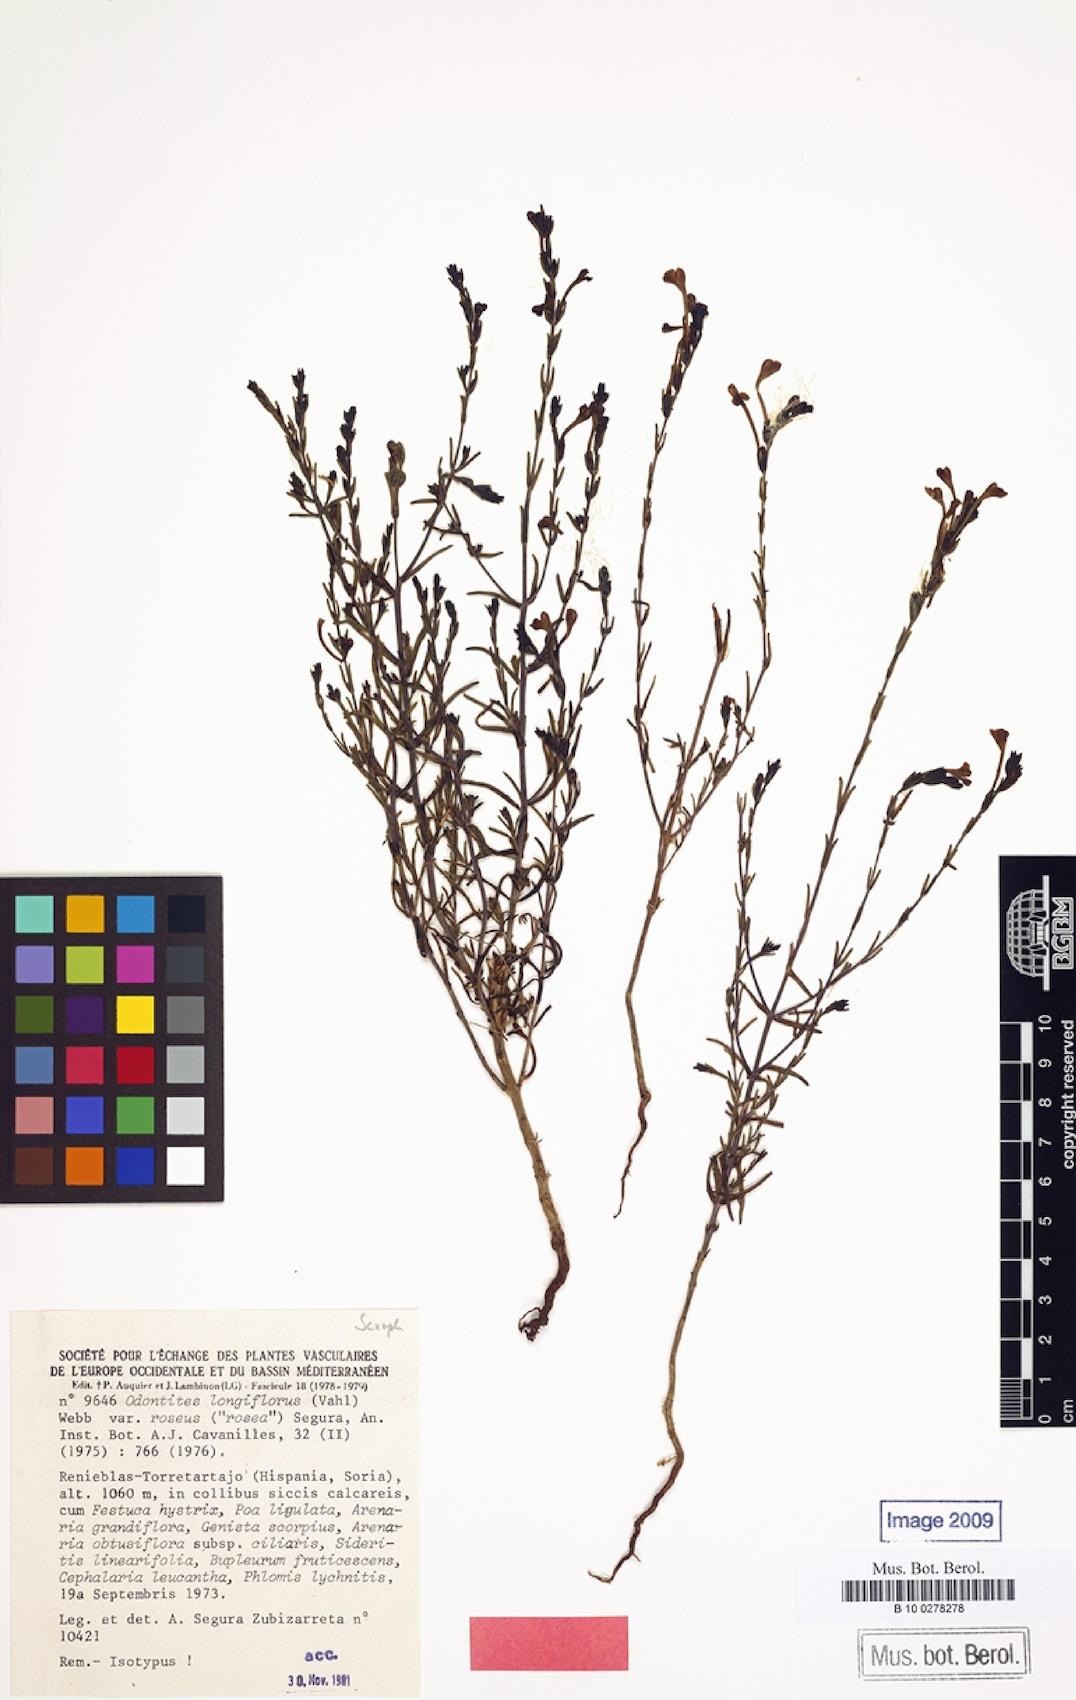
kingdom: Plantae
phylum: Tracheophyta
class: Magnoliopsida
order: Lamiales
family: Orobanchaceae
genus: Odontites
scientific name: Odontites longiflorus
